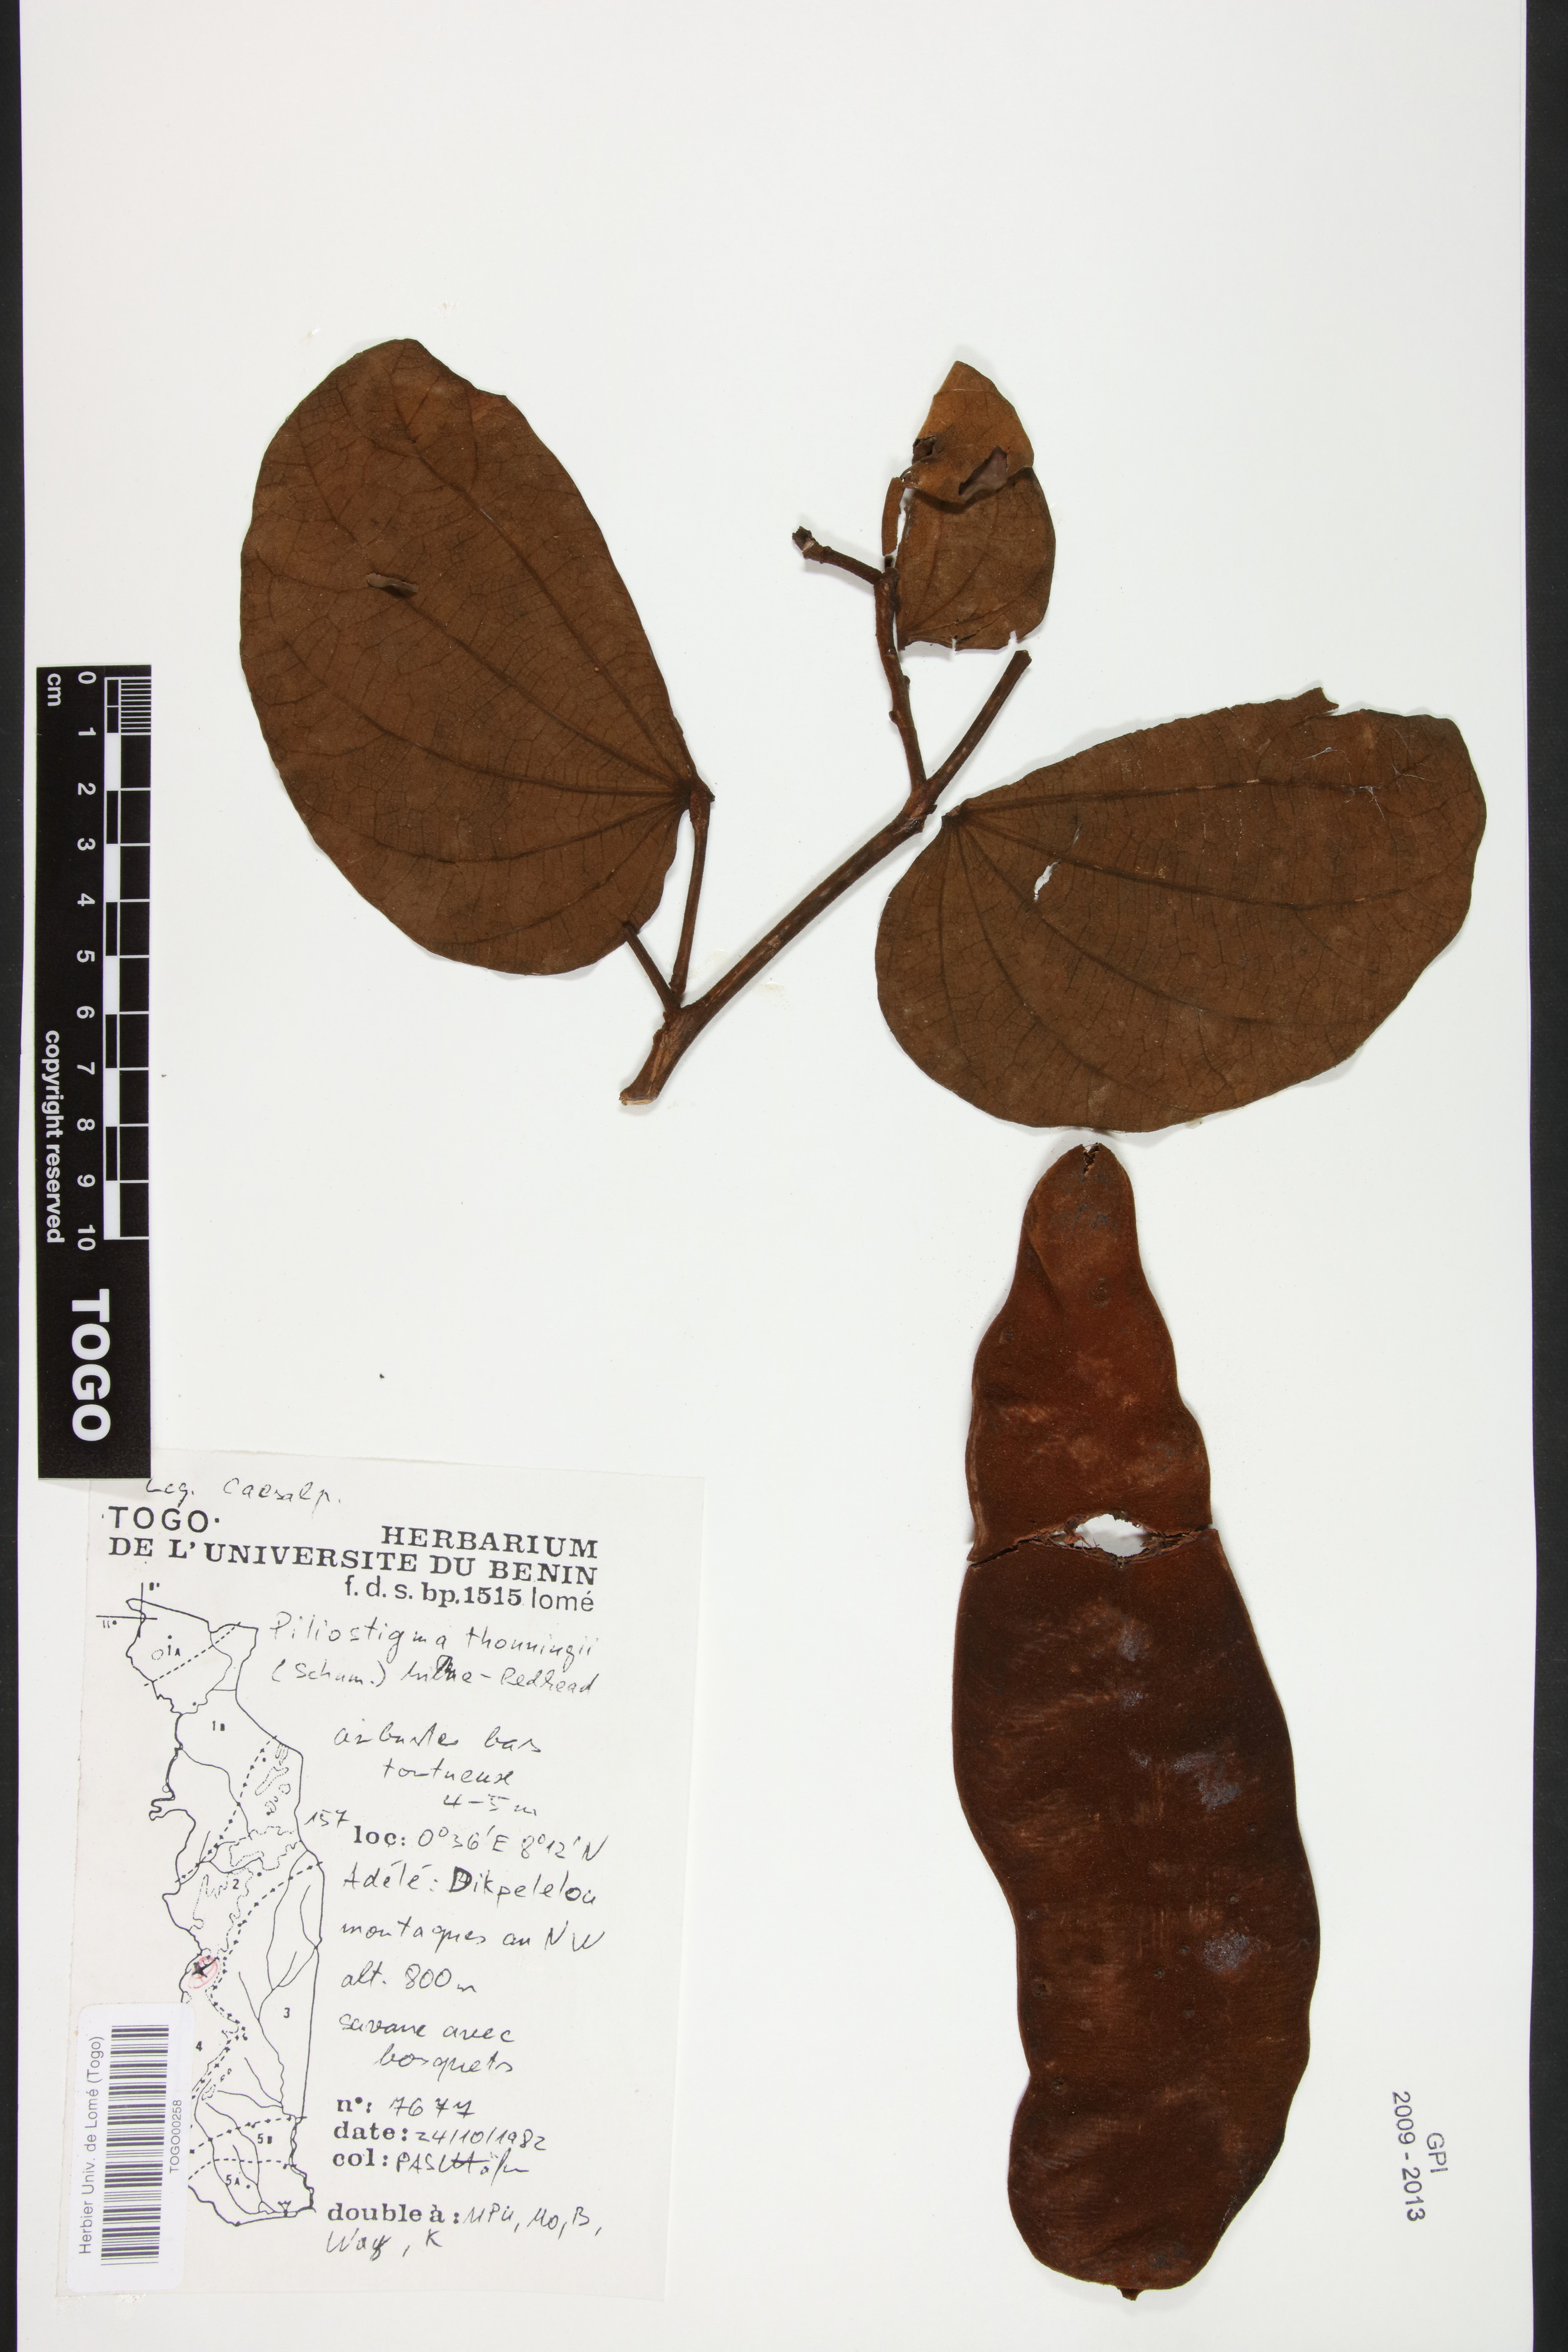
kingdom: Plantae
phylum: Tracheophyta
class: Magnoliopsida
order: Fabales
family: Fabaceae
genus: Piliostigma
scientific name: Piliostigma thonningii
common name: Kao
